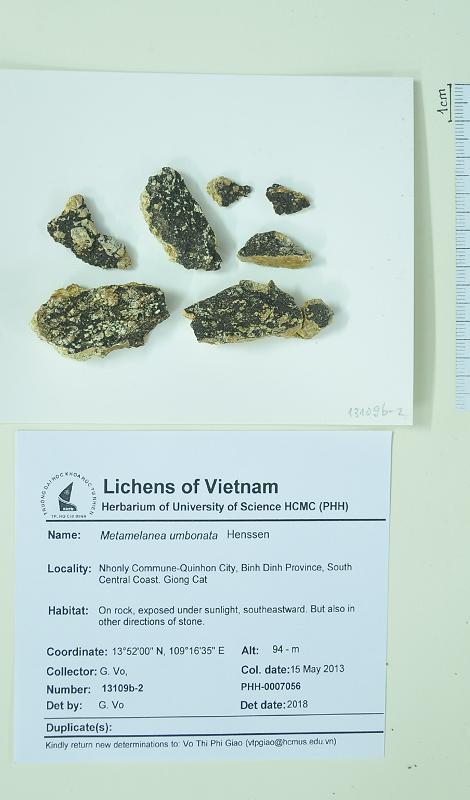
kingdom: Fungi
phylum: Ascomycota
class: Lichinomycetes
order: Lichinales
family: Lichinaceae
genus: Metamelanea
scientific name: Metamelanea umbonata
